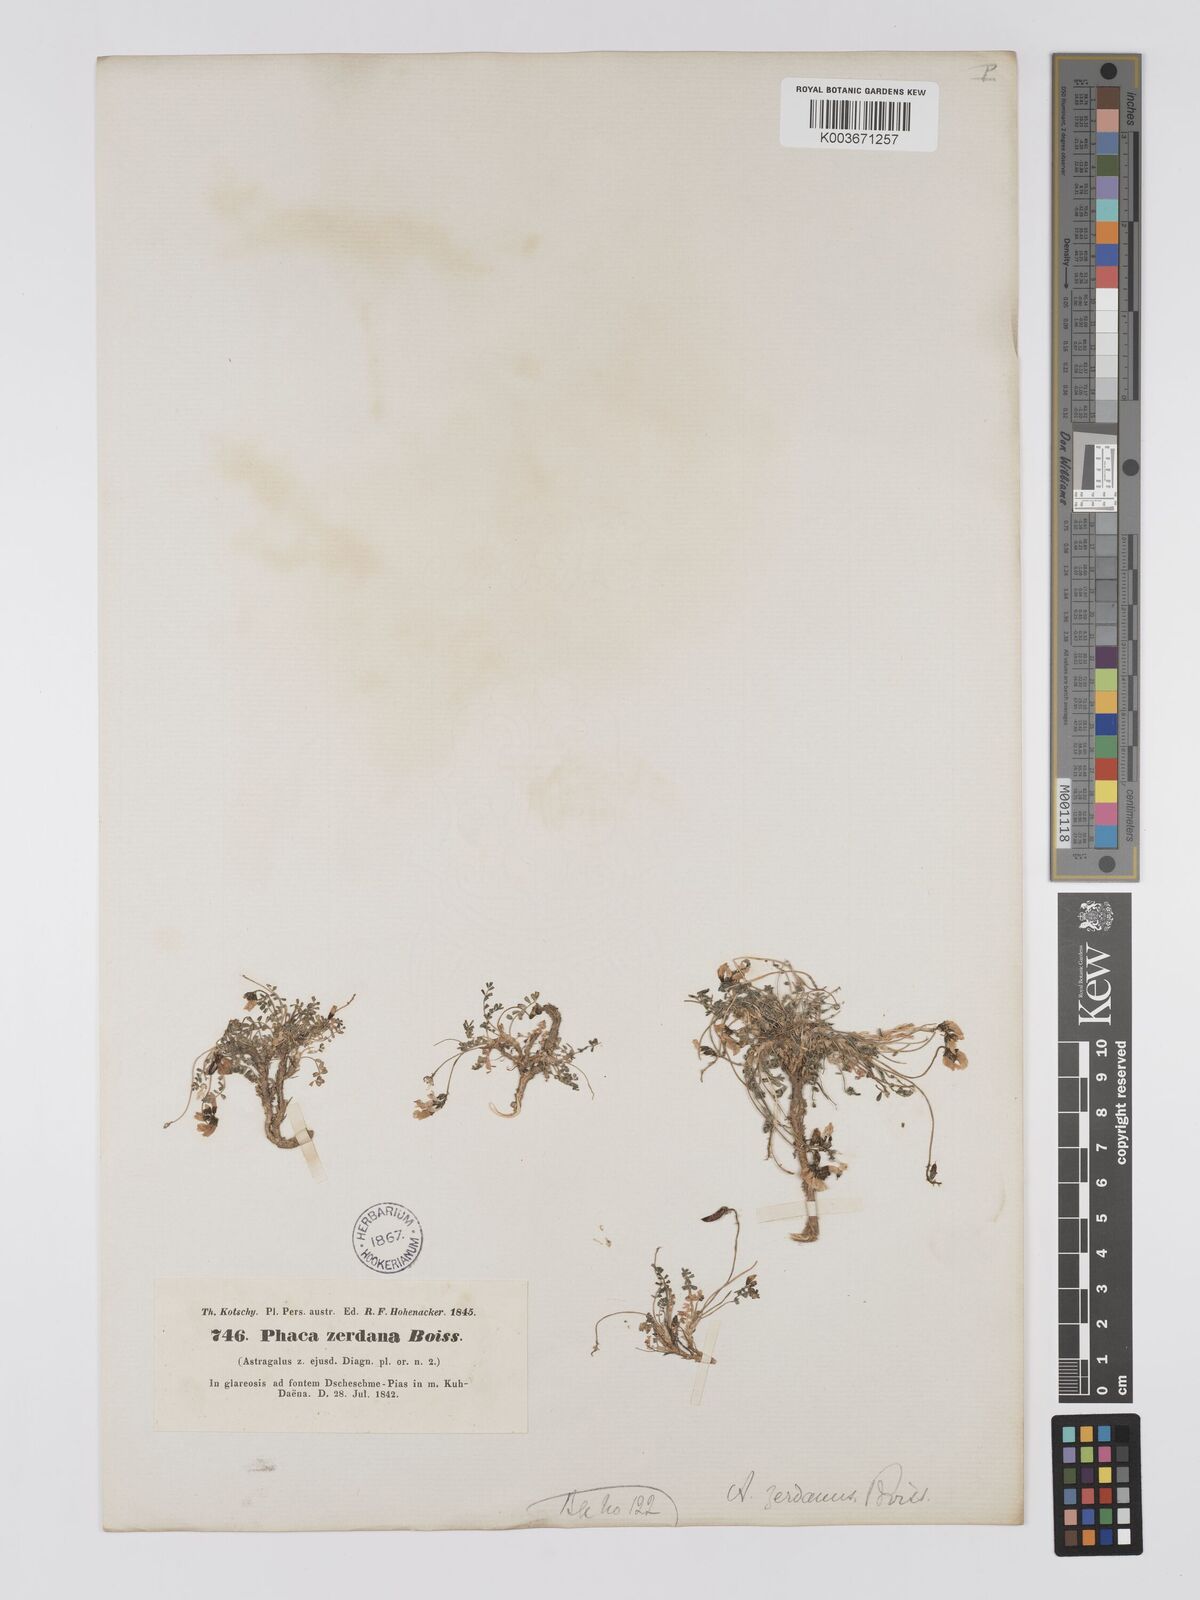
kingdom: Plantae
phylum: Tracheophyta
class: Magnoliopsida
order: Fabales
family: Fabaceae
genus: Astragalus
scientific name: Astragalus zerdanus
